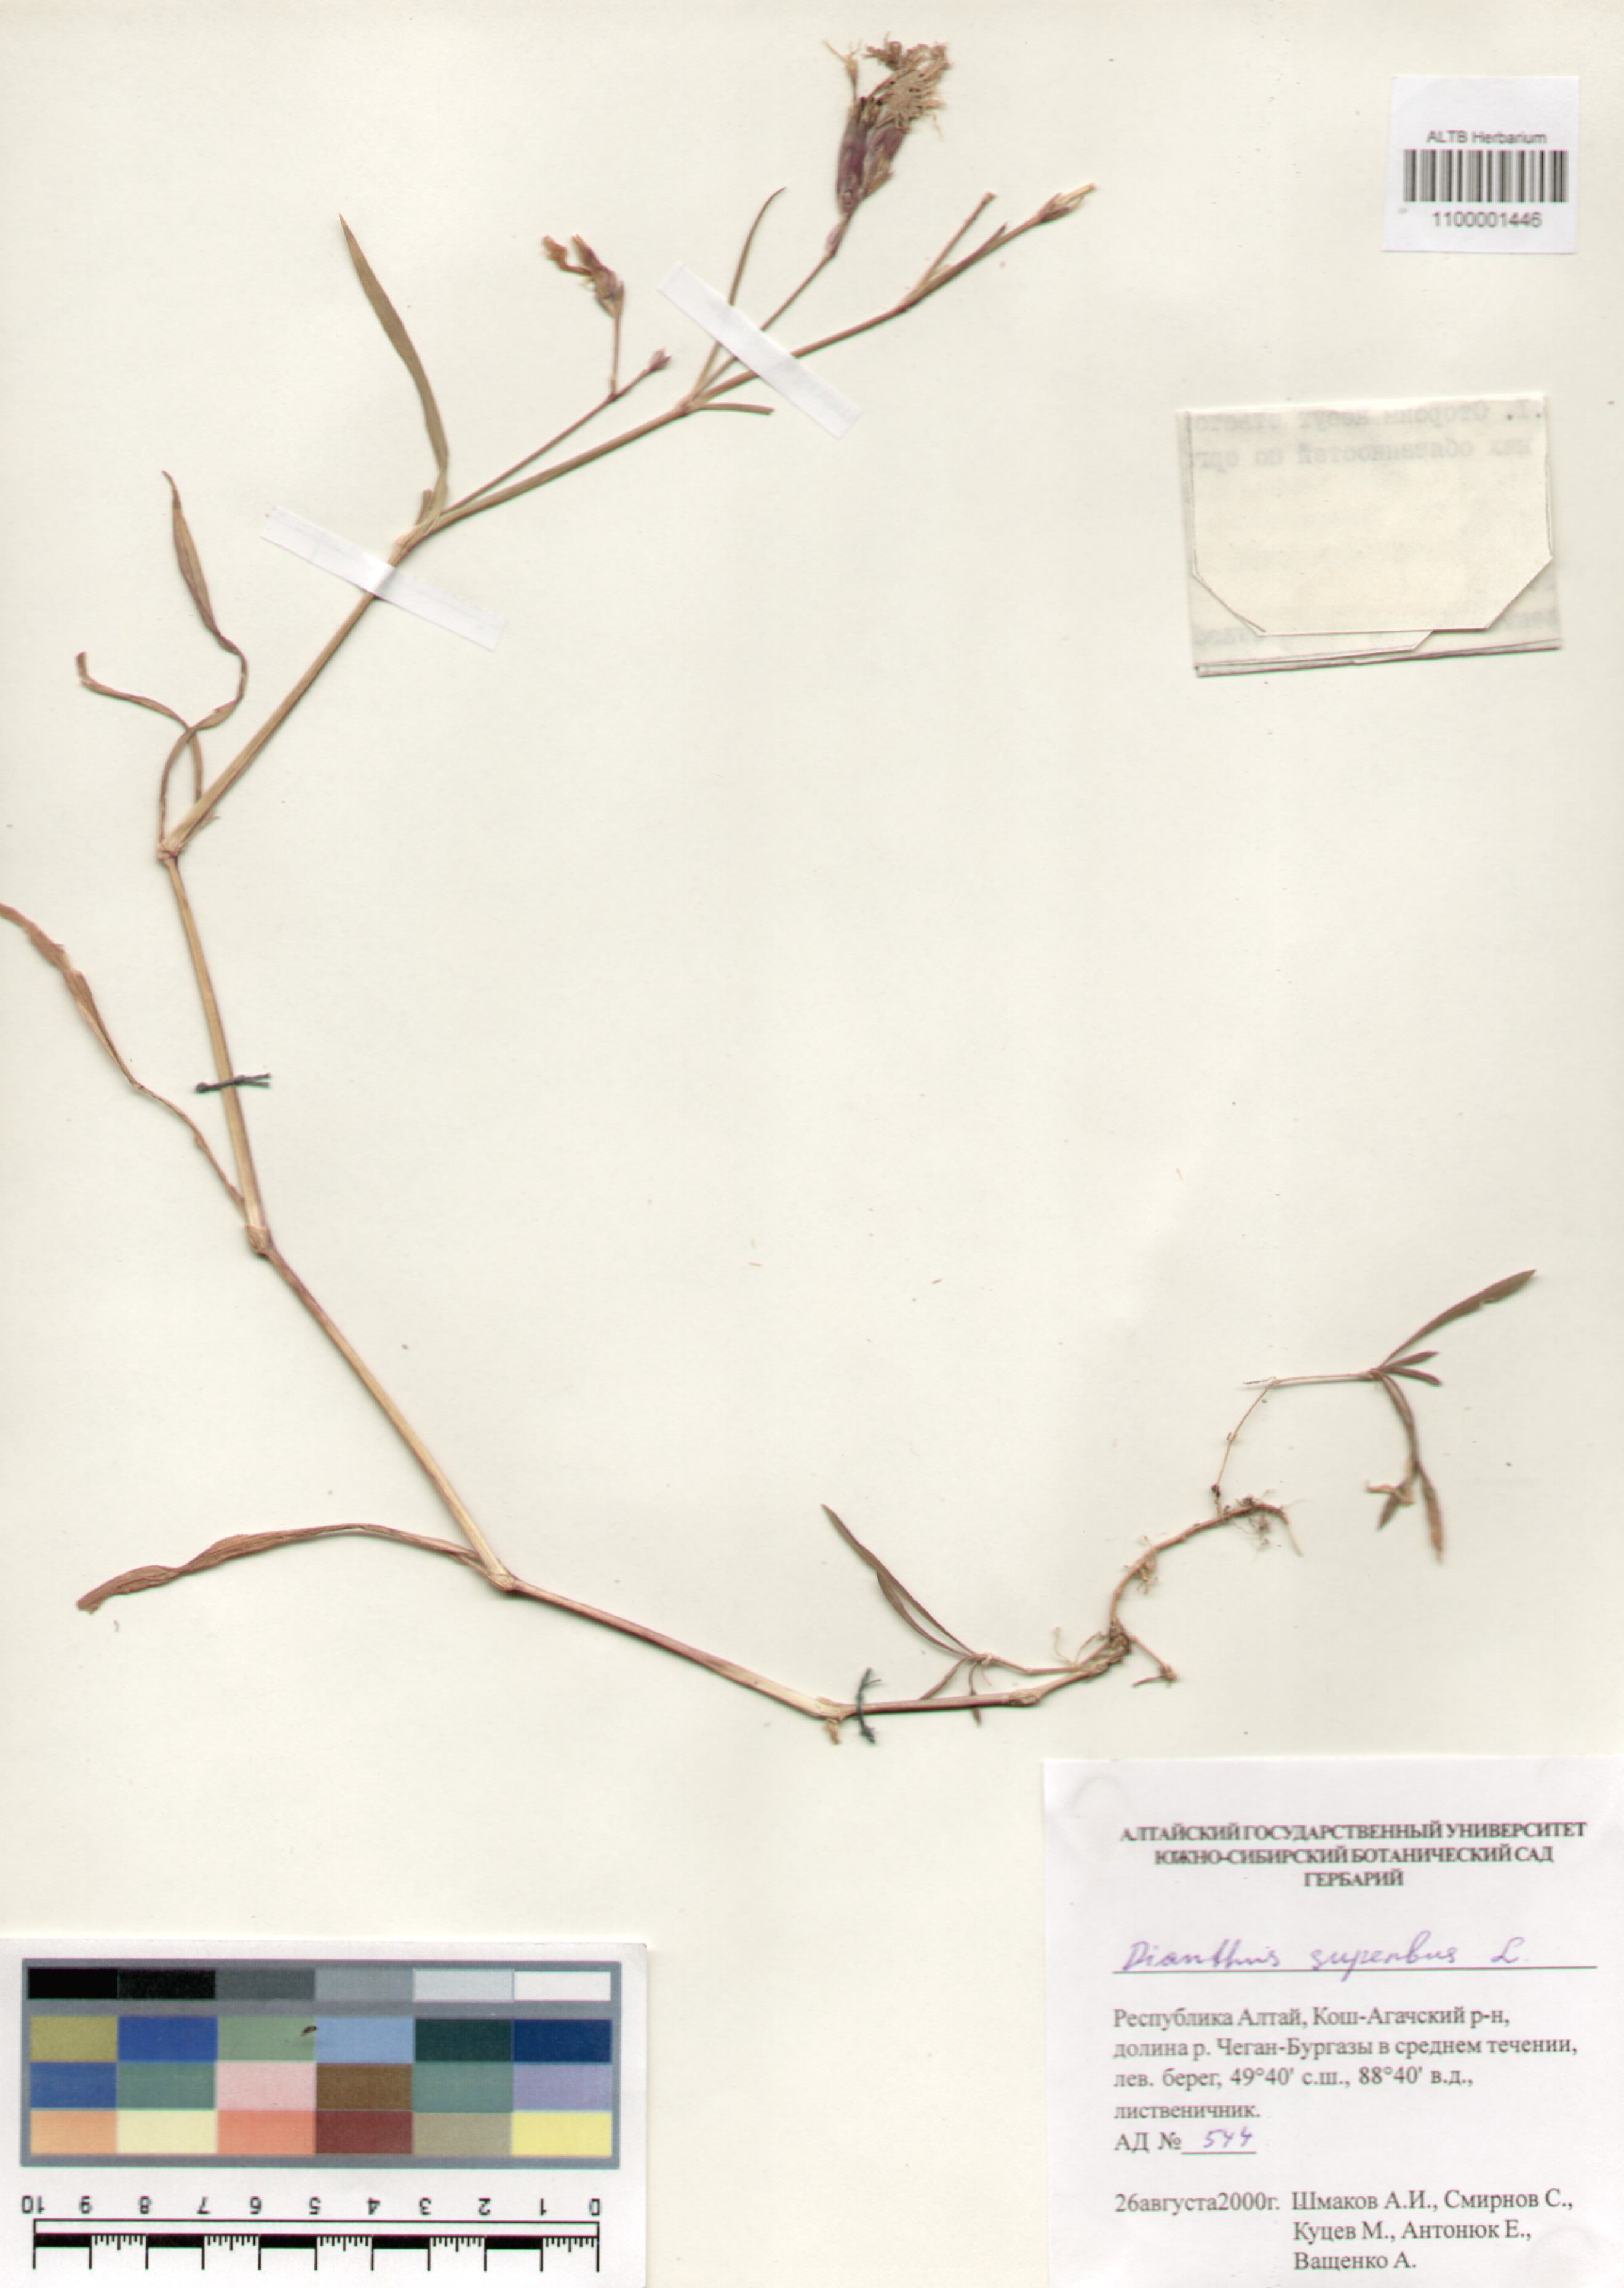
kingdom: Plantae
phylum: Tracheophyta
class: Magnoliopsida
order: Caryophyllales
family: Caryophyllaceae
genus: Dianthus
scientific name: Dianthus superbus
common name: Fringed pink
